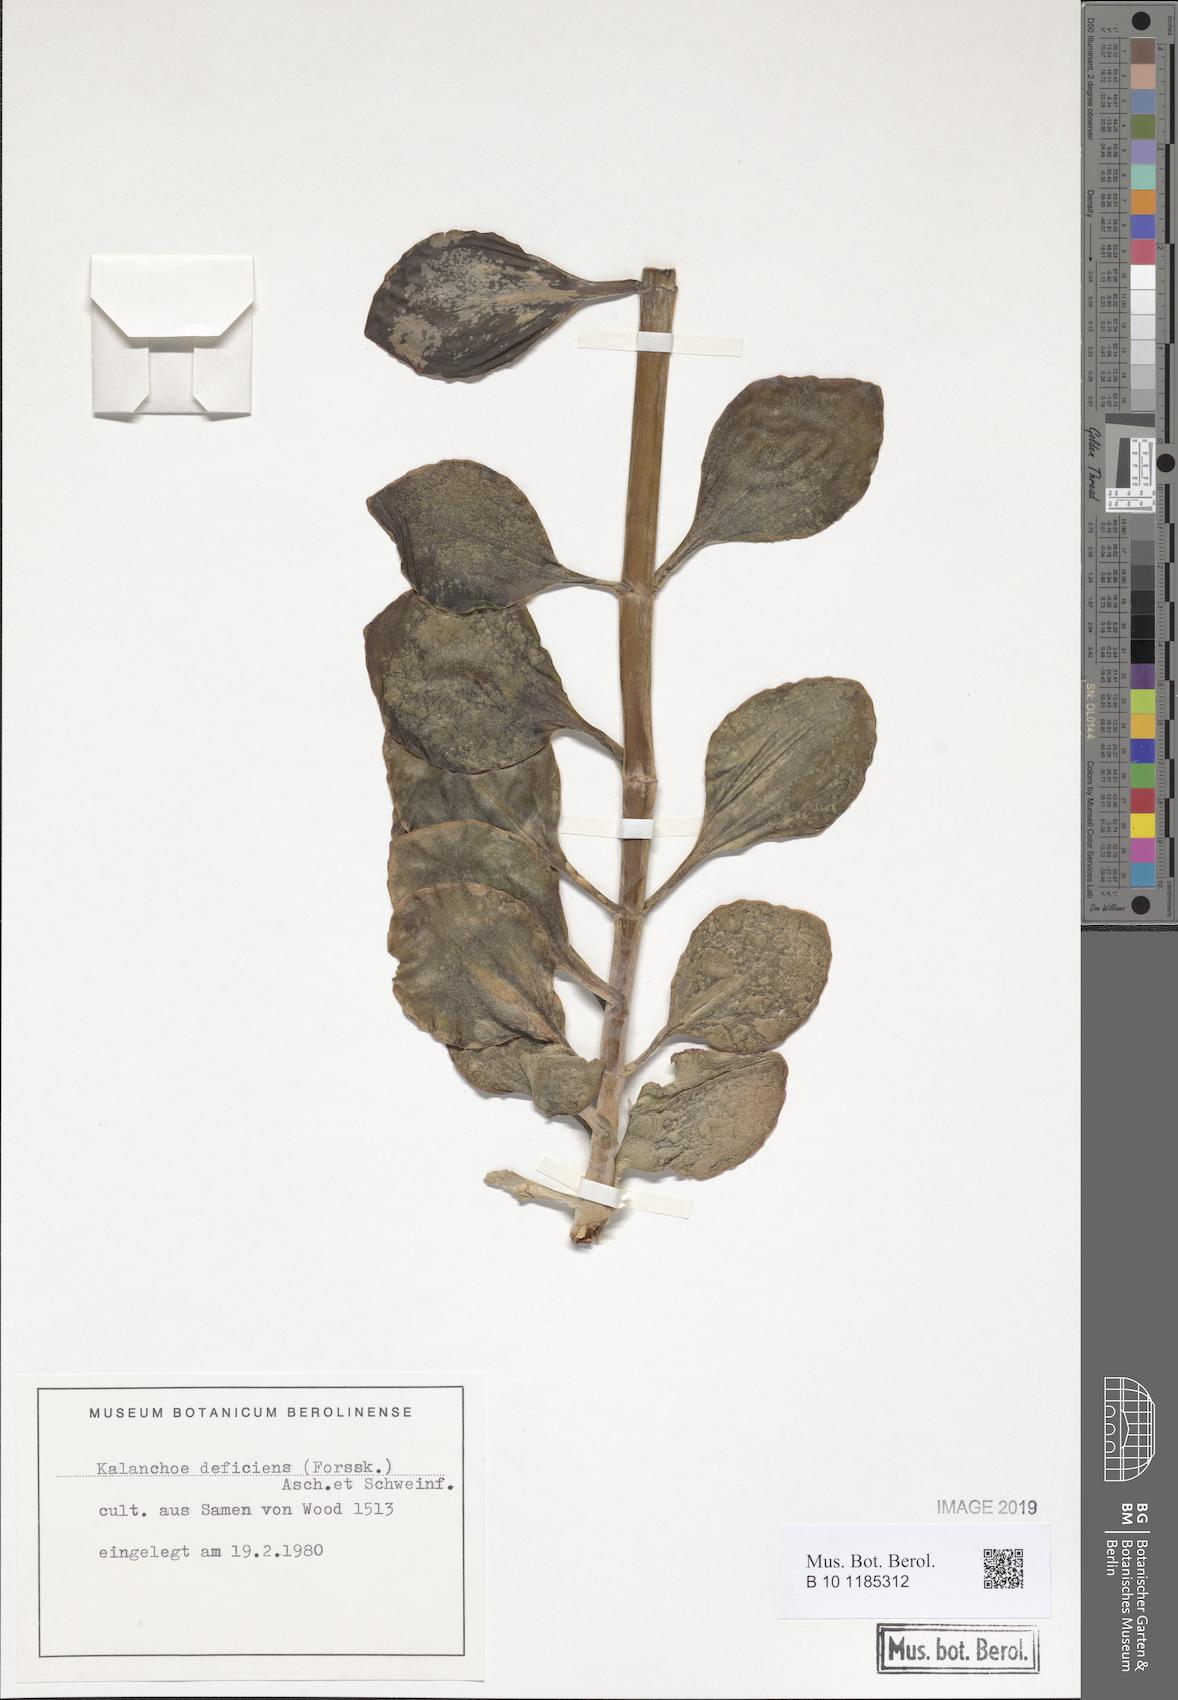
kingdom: Plantae
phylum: Tracheophyta
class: Magnoliopsida
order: Saxifragales
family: Crassulaceae
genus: Kalanchoe
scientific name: Kalanchoe deficiens
